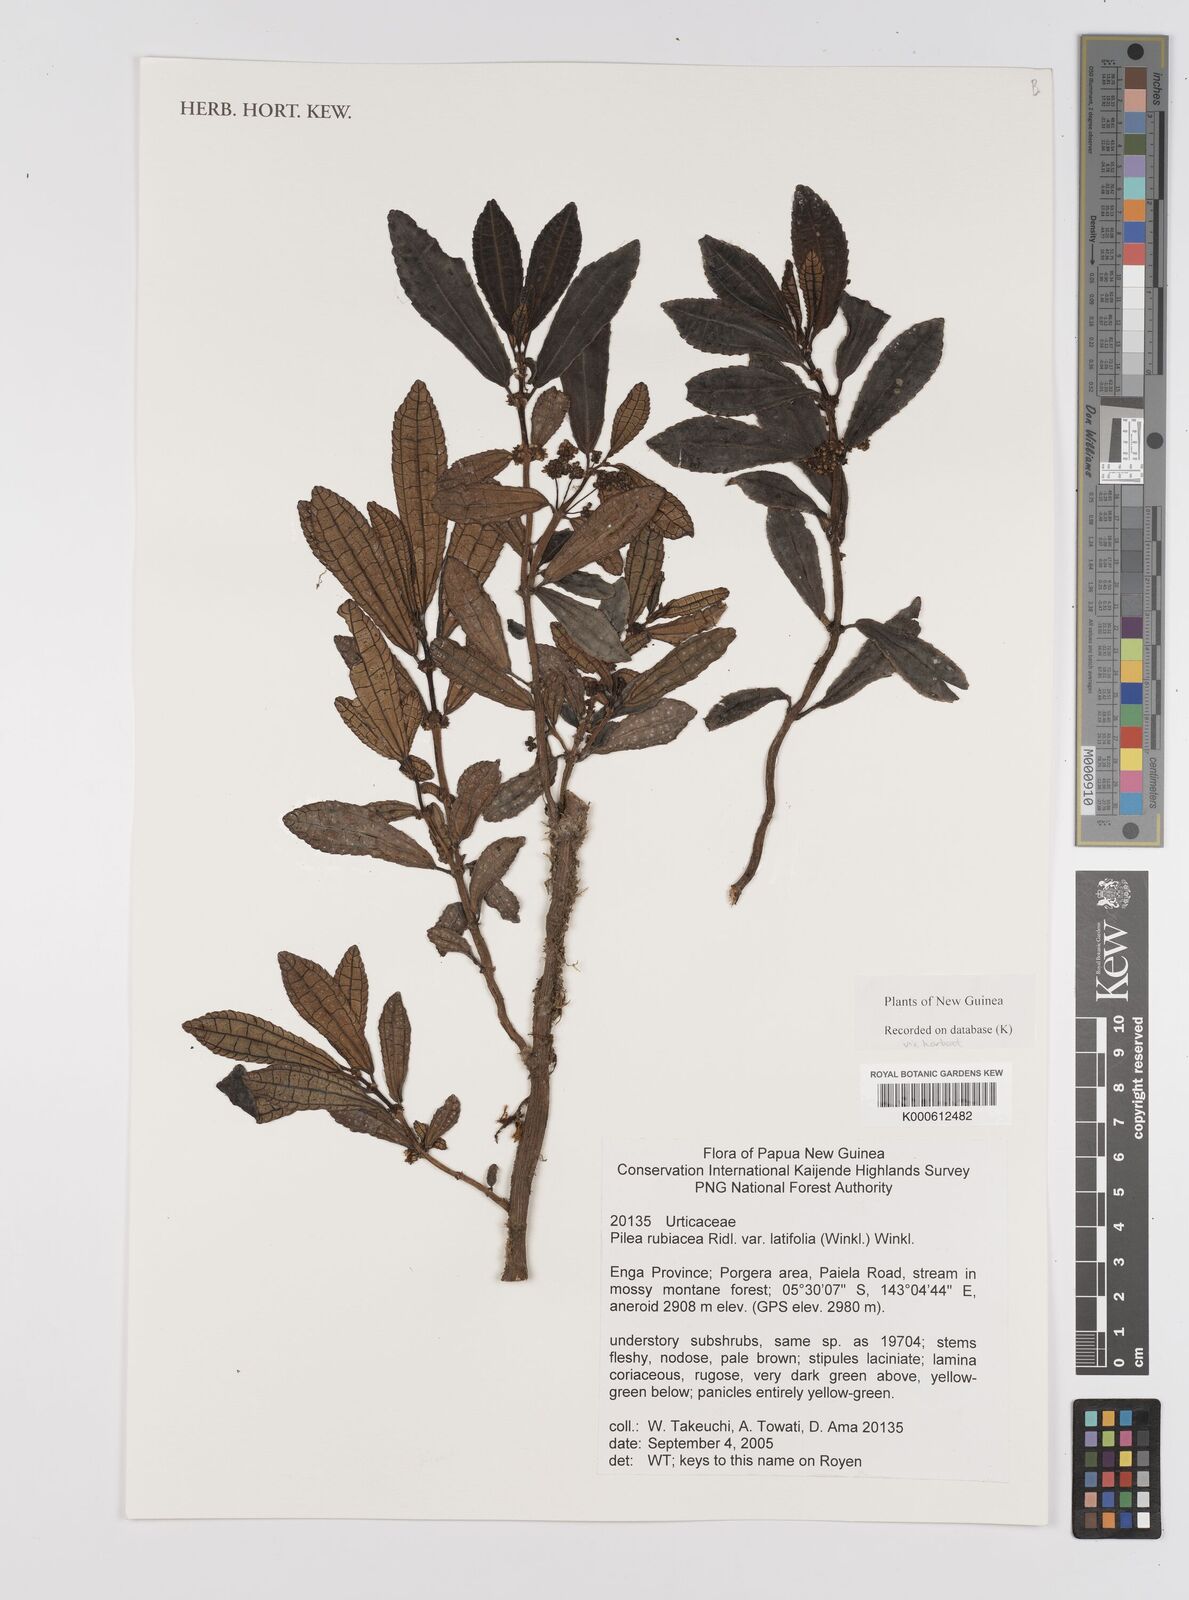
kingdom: Plantae
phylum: Tracheophyta
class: Magnoliopsida
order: Rosales
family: Urticaceae
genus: Pilea
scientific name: Pilea rubiacea
